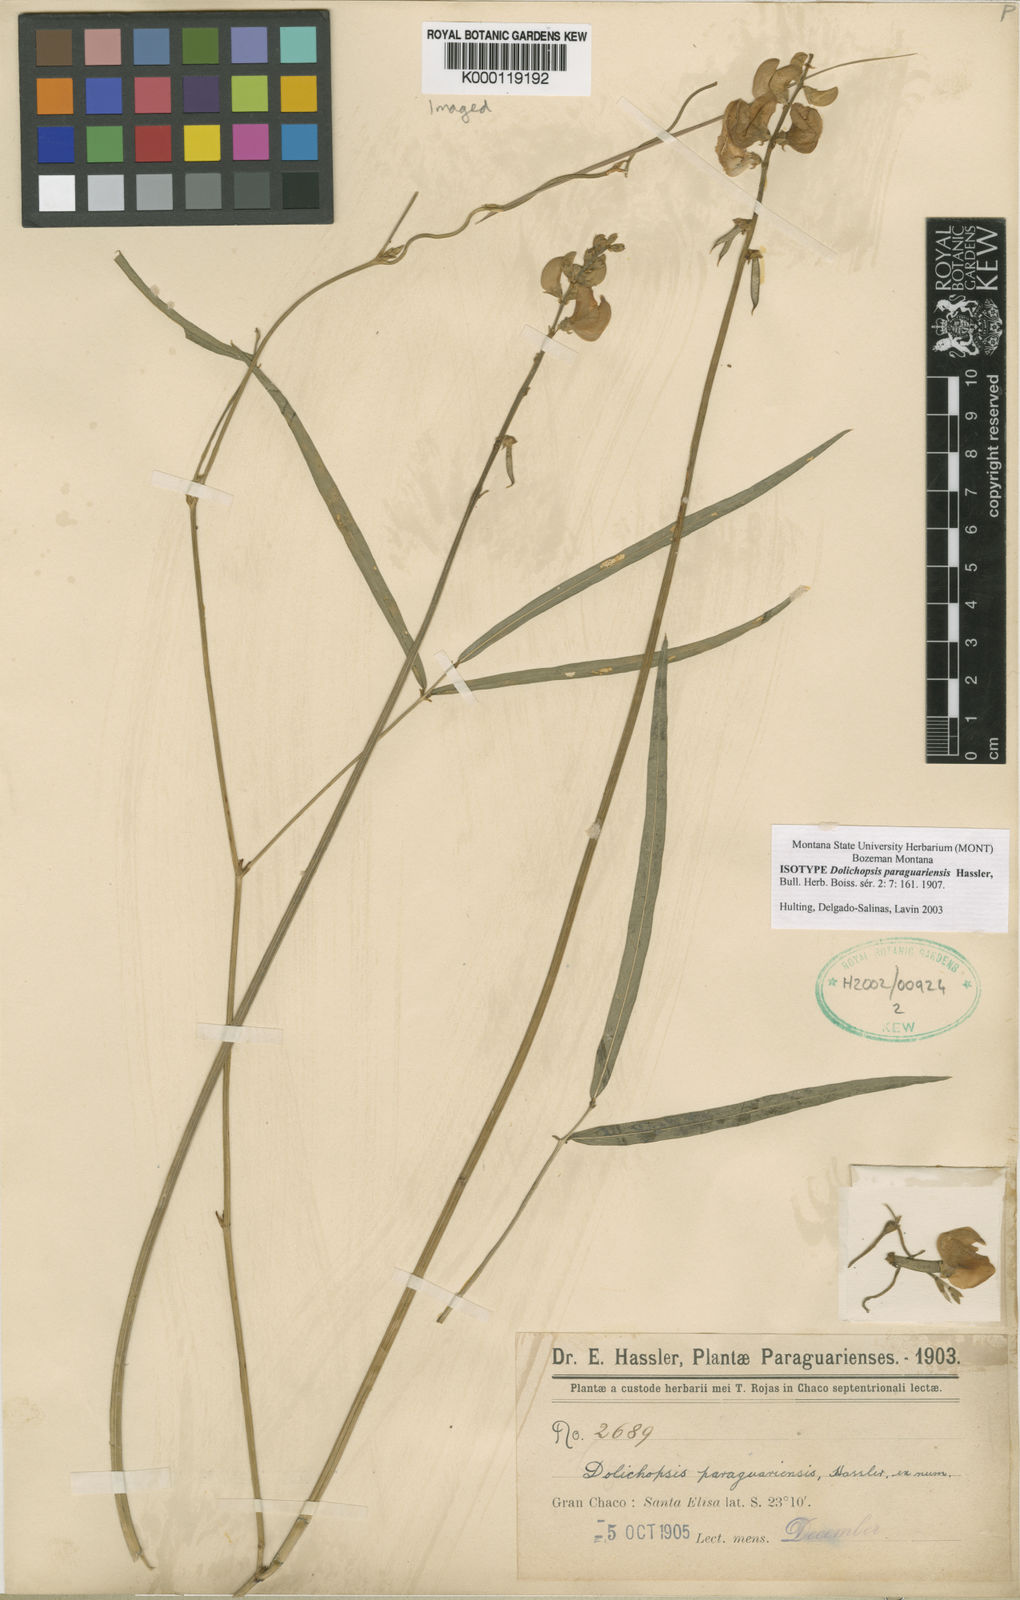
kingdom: Plantae
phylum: Tracheophyta
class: Magnoliopsida
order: Fabales
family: Fabaceae
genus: Dolichopsis
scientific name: Dolichopsis paraguariensis
